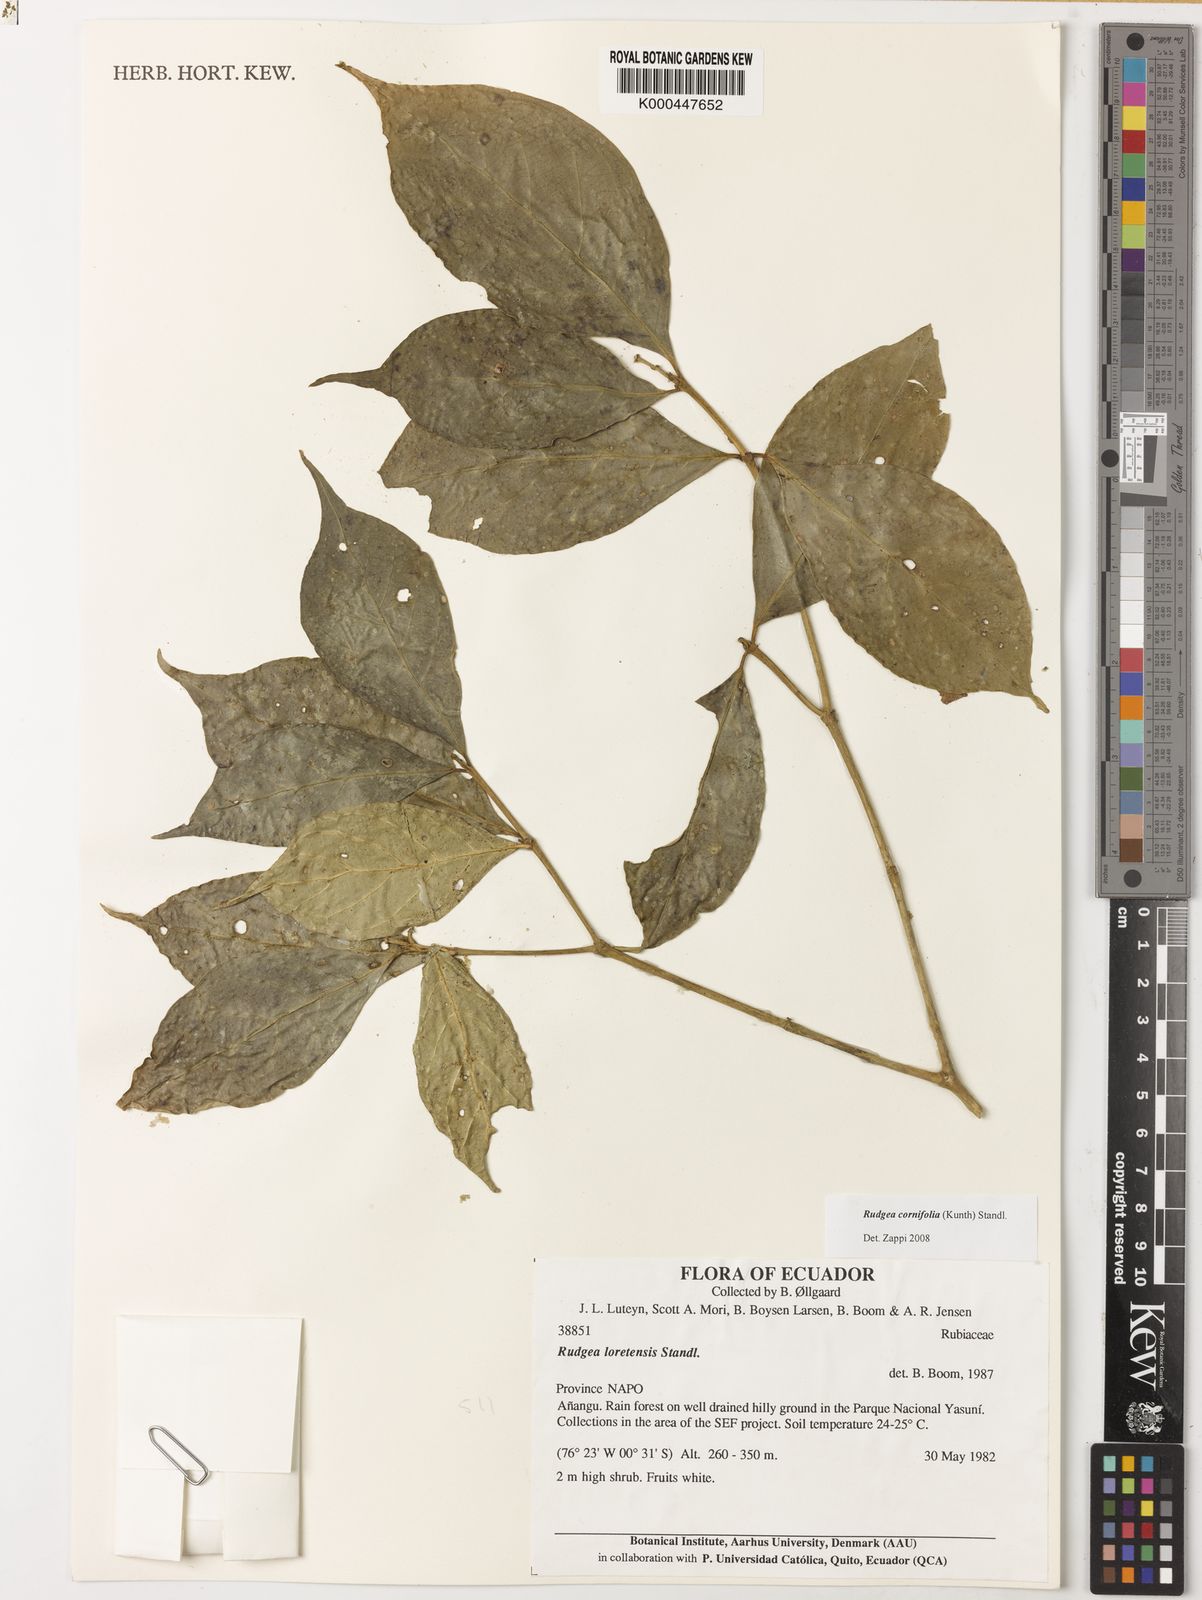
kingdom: Plantae
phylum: Tracheophyta
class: Magnoliopsida
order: Gentianales
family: Rubiaceae
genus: Rudgea
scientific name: Rudgea cornifolia
